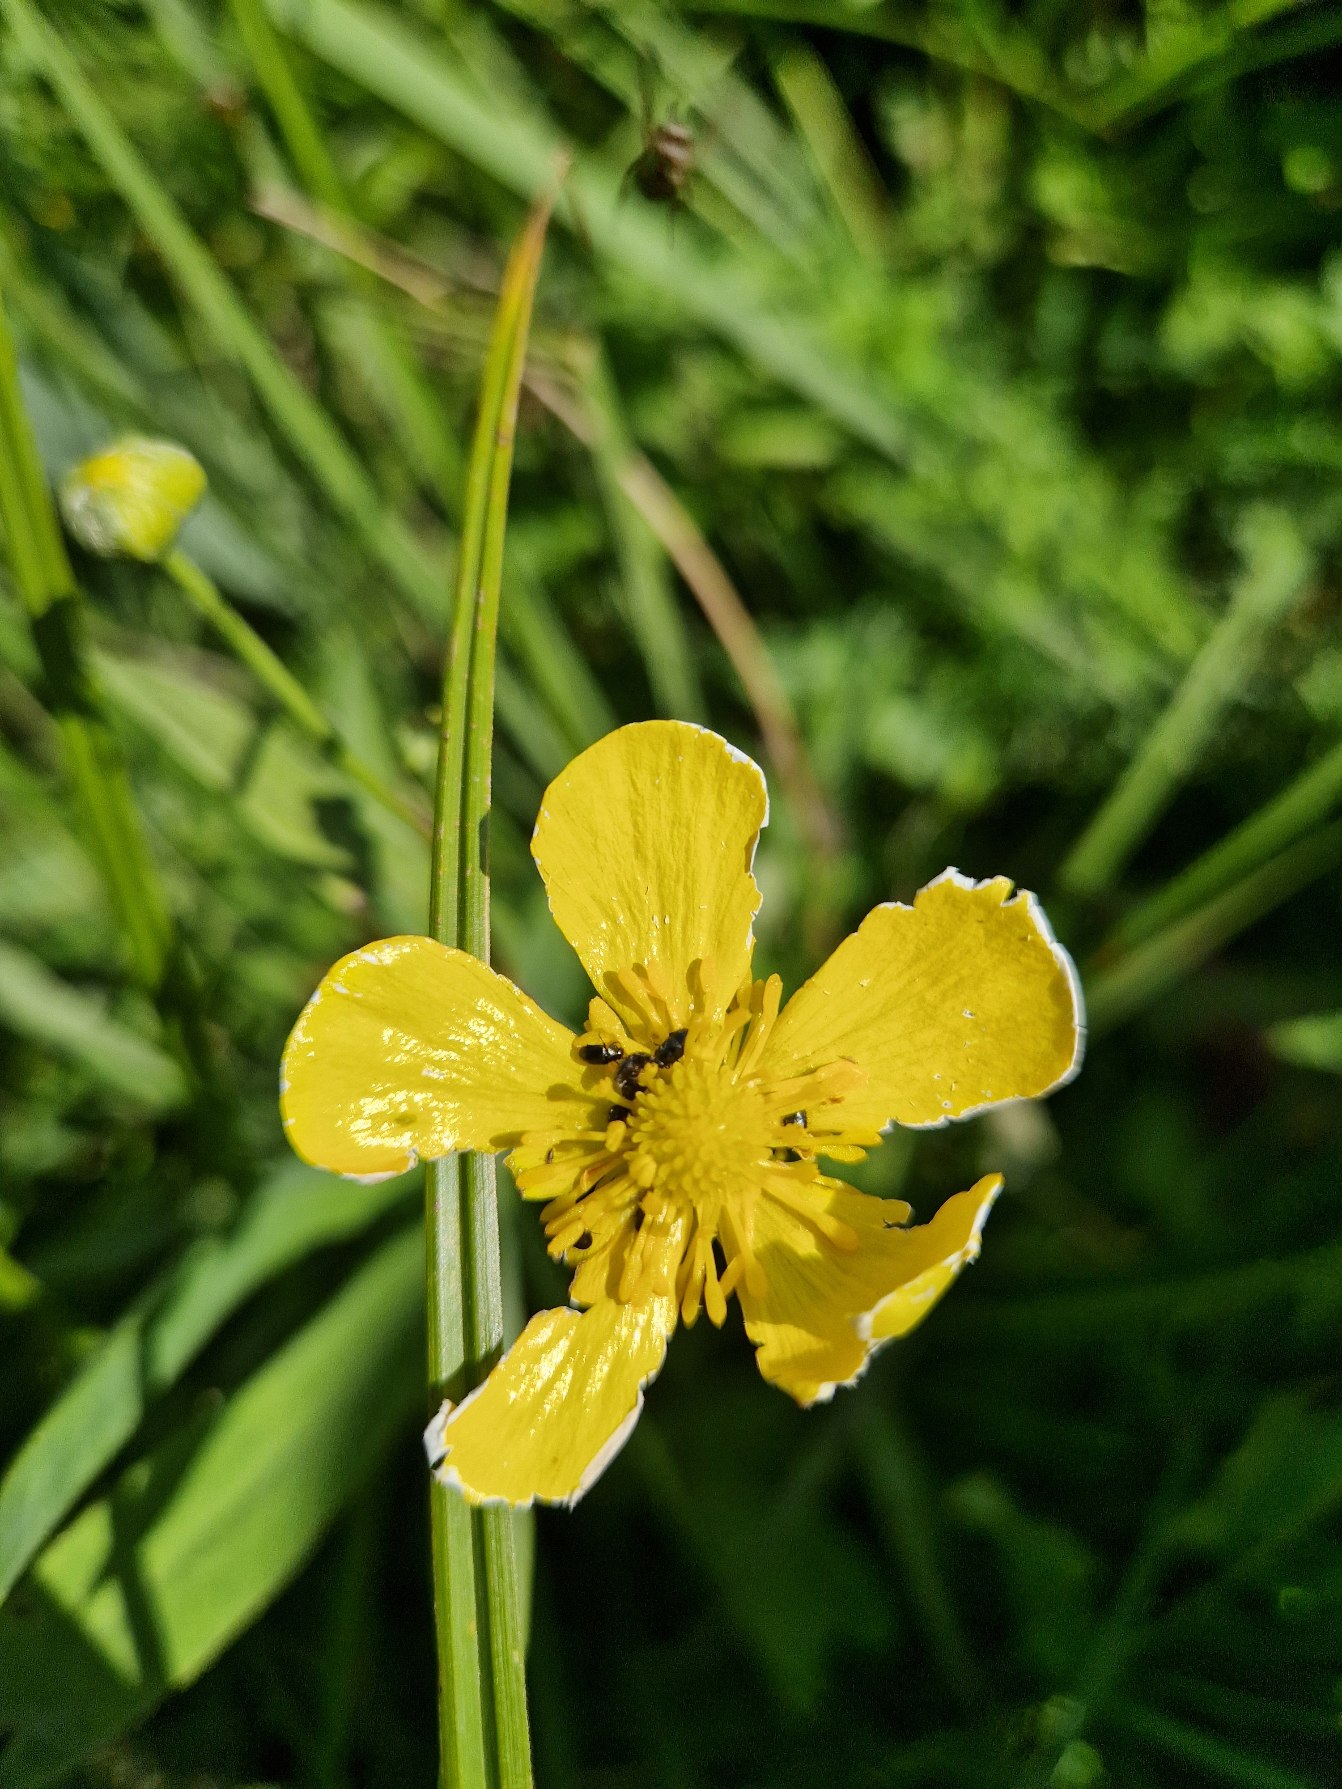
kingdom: Plantae
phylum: Tracheophyta
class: Magnoliopsida
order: Ranunculales
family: Ranunculaceae
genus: Ranunculus
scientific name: Ranunculus lingua
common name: Langbladet ranunkel
